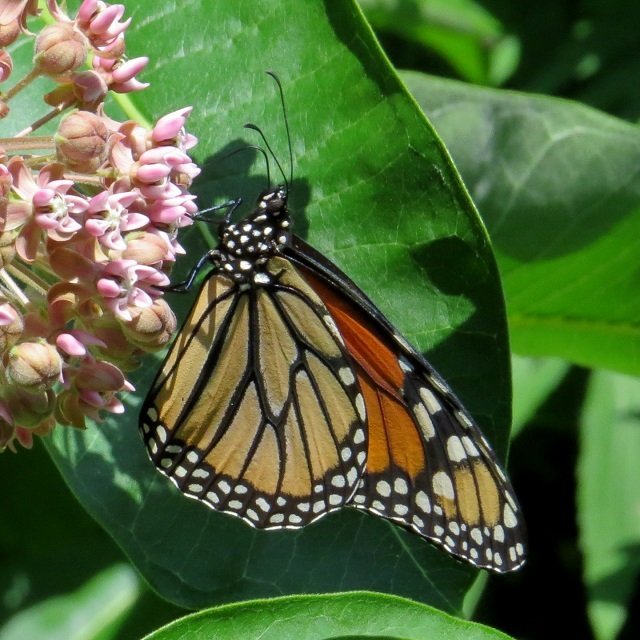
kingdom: Animalia
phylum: Arthropoda
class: Insecta
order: Lepidoptera
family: Nymphalidae
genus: Danaus
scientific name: Danaus plexippus
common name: Monarch
